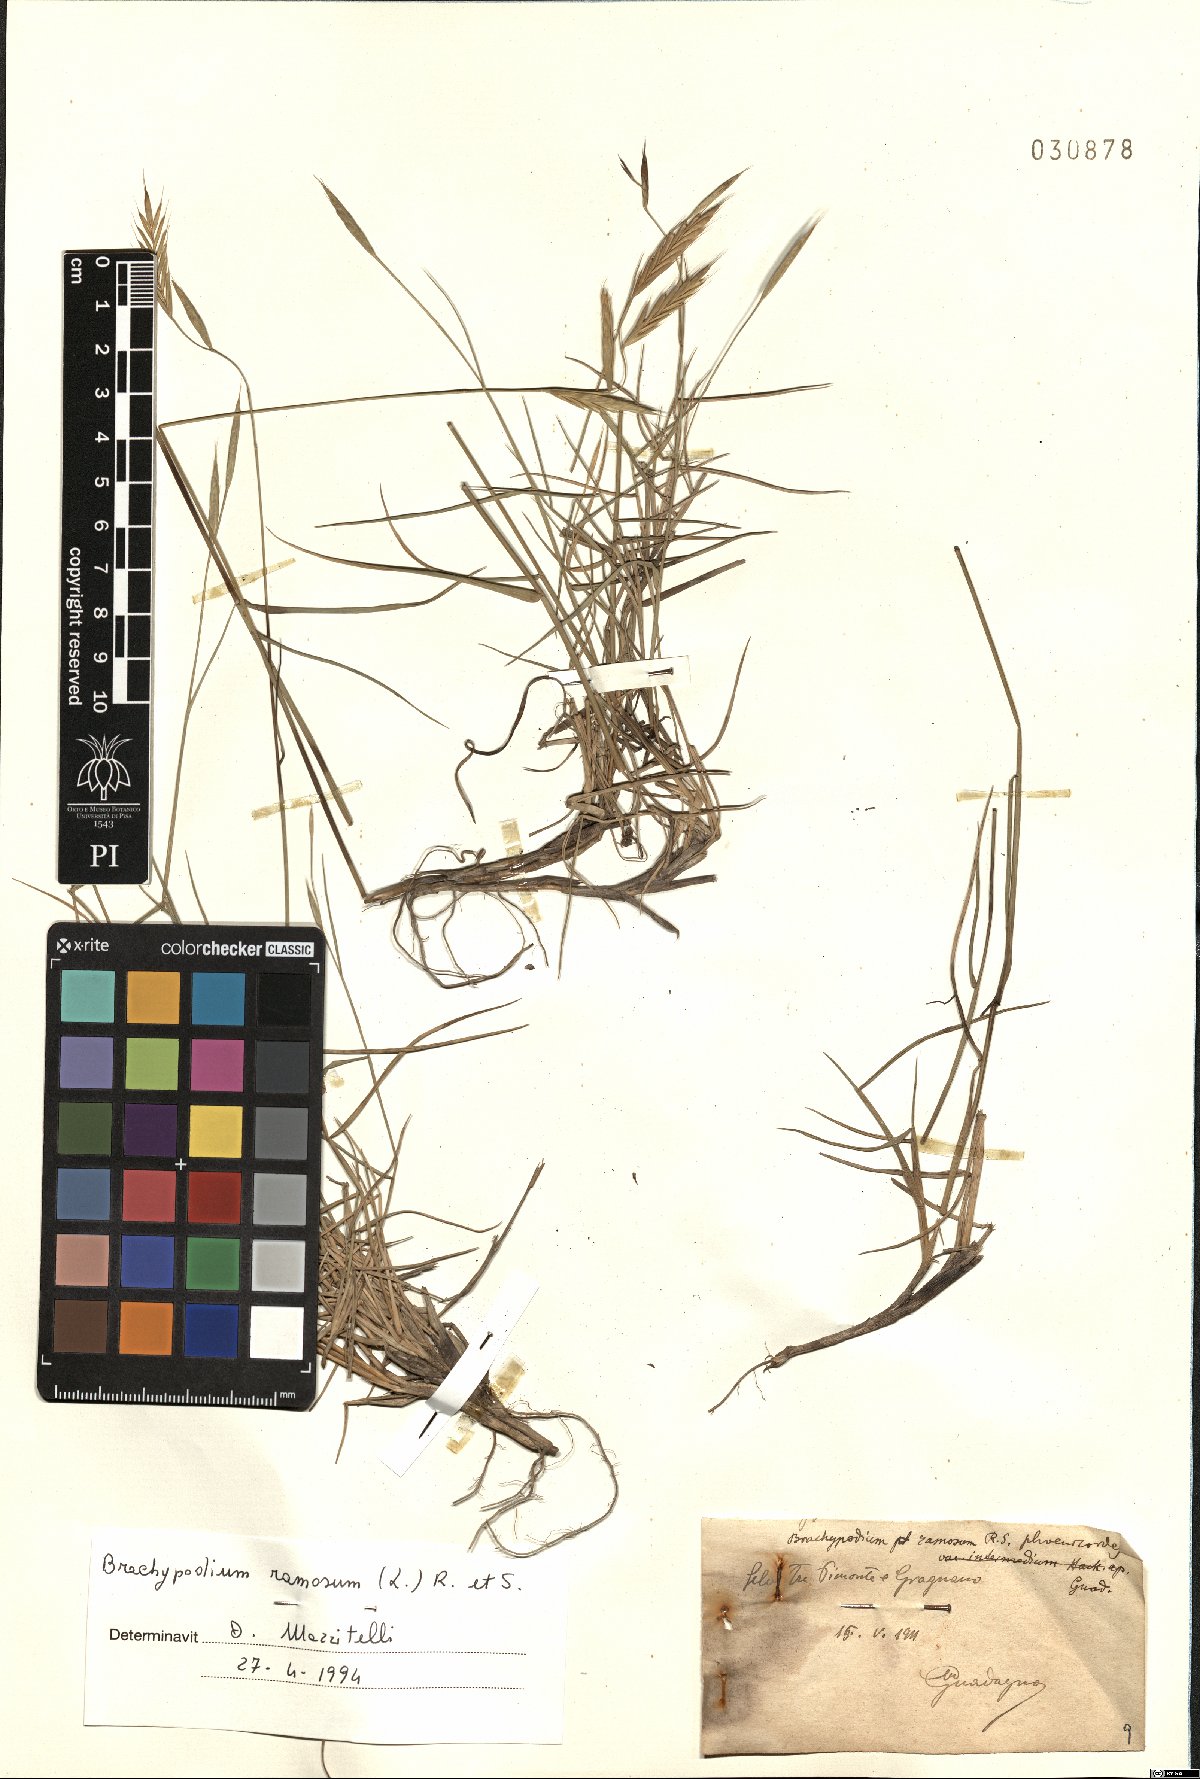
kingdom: Plantae
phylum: Tracheophyta
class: Liliopsida
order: Poales
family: Poaceae
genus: Brachypodium
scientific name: Brachypodium retusum
